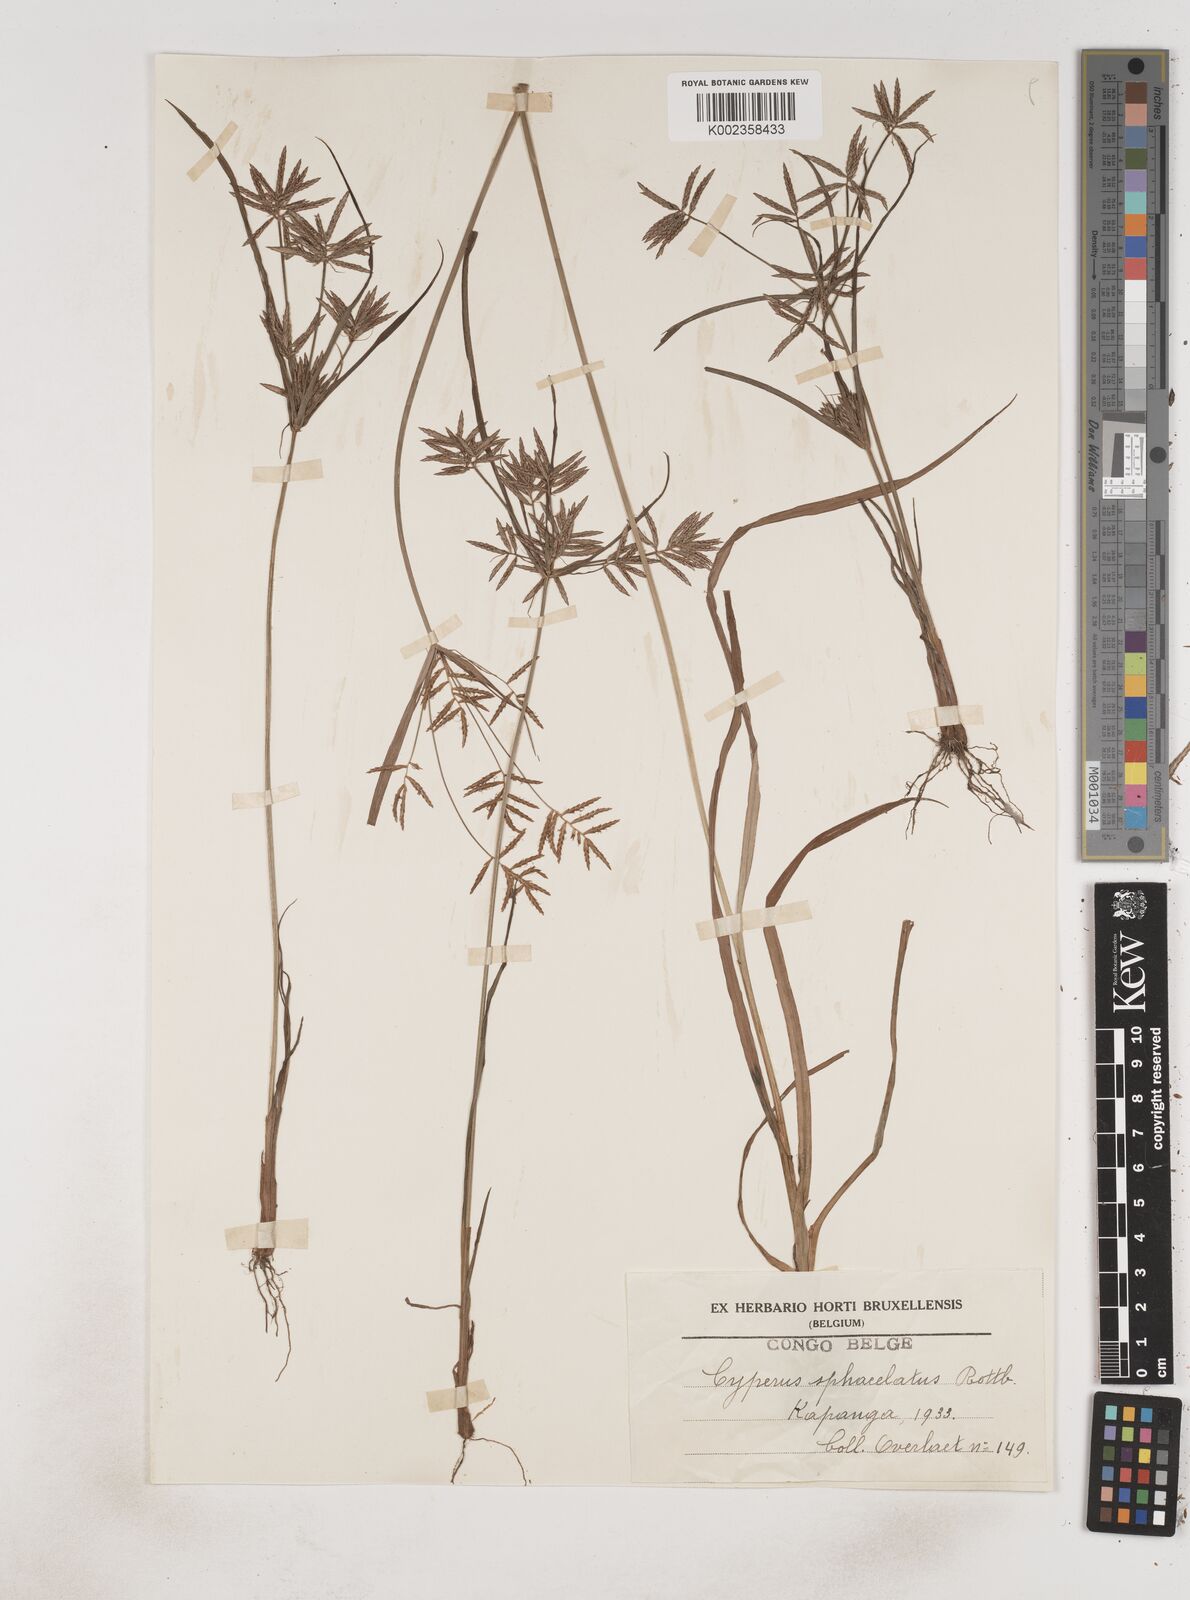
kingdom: Plantae
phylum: Tracheophyta
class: Liliopsida
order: Poales
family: Cyperaceae
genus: Cyperus
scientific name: Cyperus sphacelatus
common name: Roadside flatsedge
